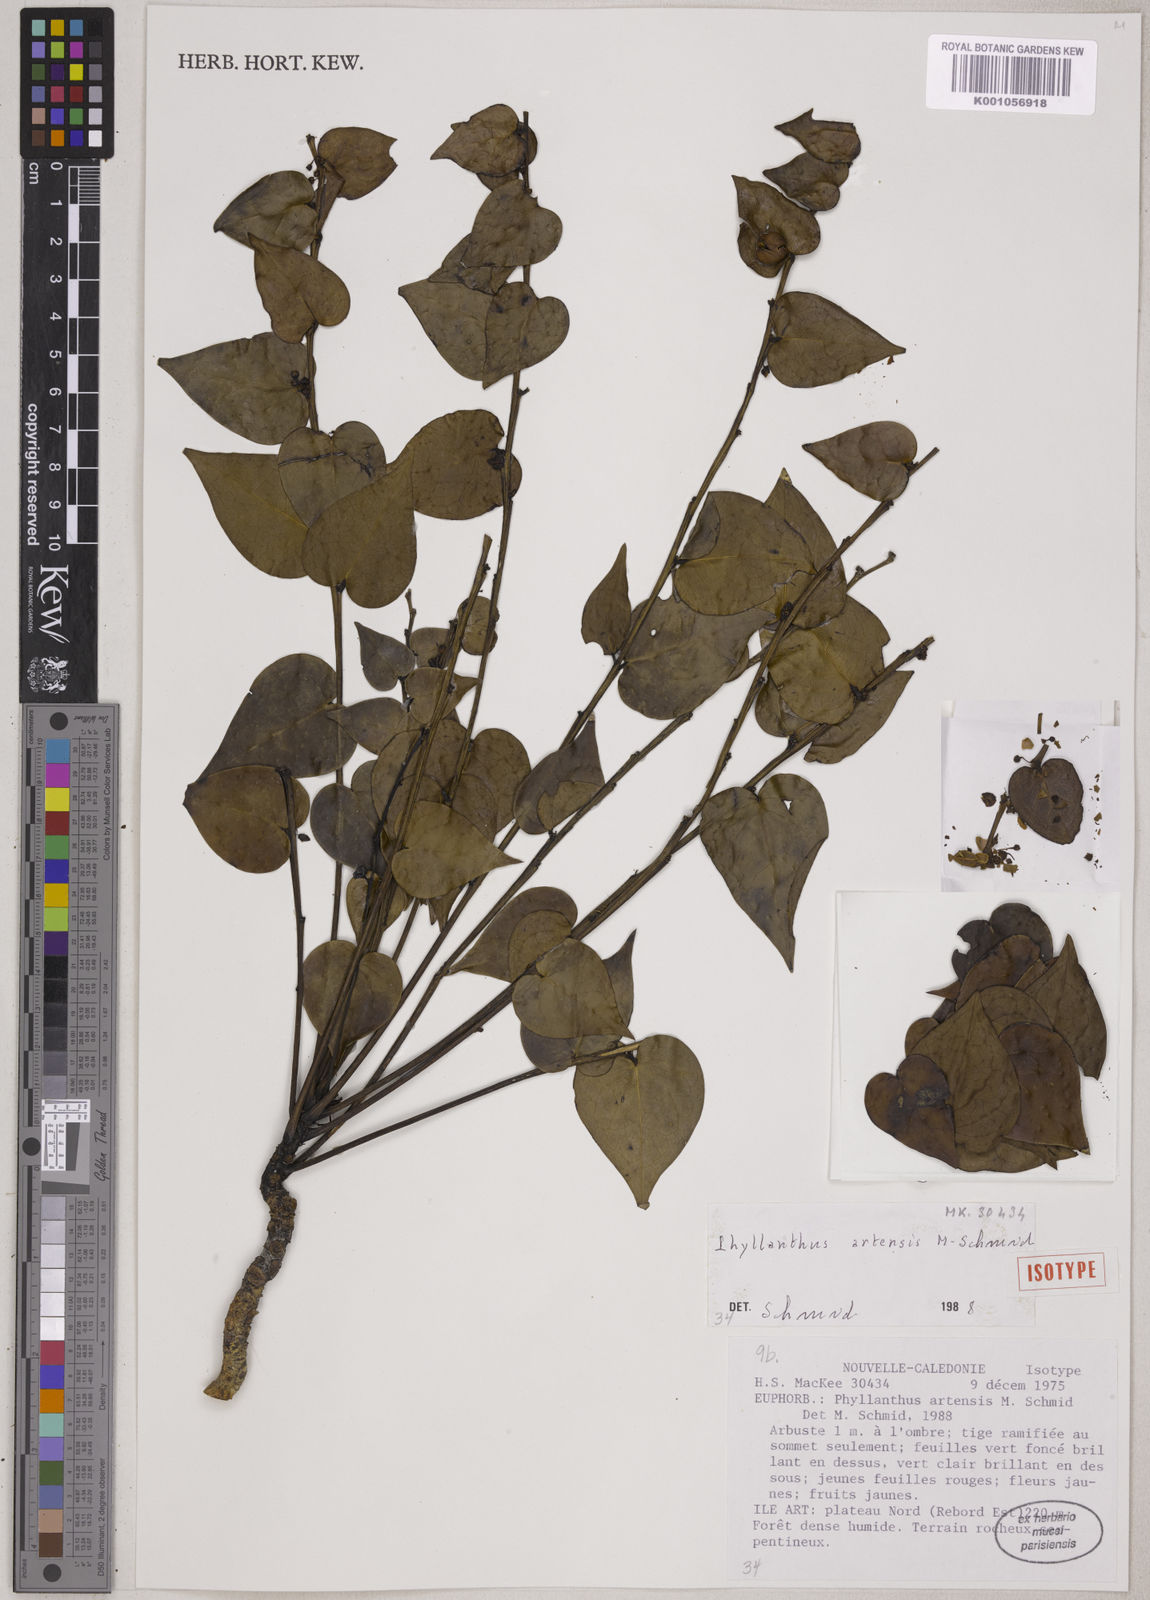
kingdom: Plantae
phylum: Tracheophyta
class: Magnoliopsida
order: Malpighiales
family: Phyllanthaceae
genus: Phyllanthus
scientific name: Phyllanthus artensis
